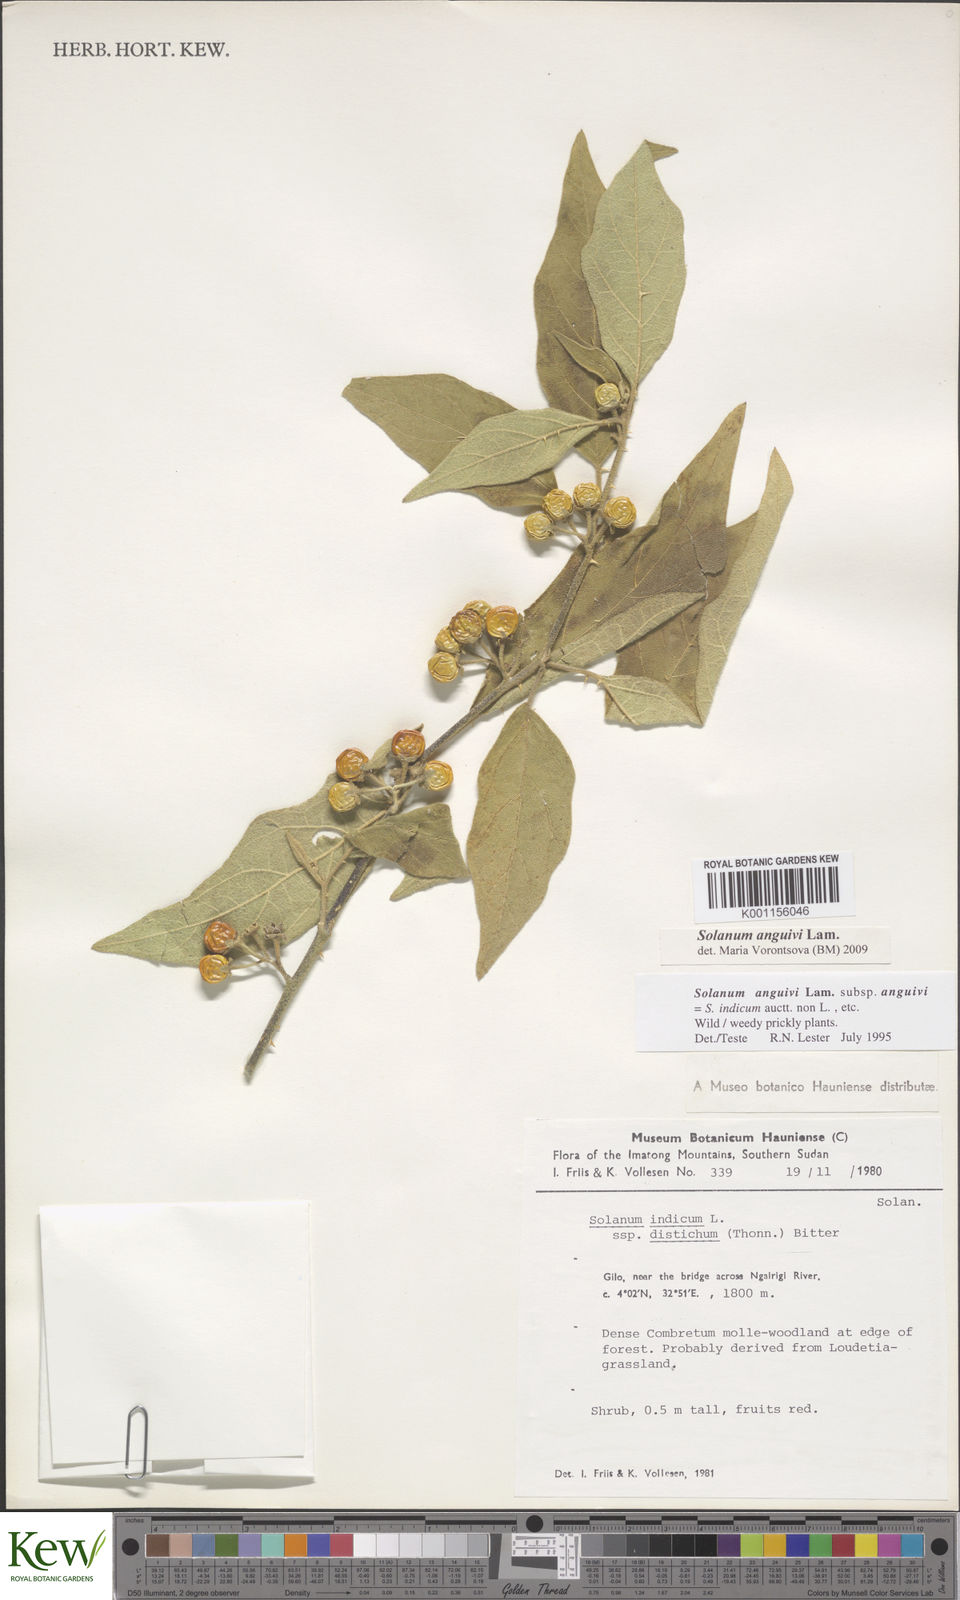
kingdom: Plantae
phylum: Tracheophyta
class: Magnoliopsida
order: Solanales
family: Solanaceae
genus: Solanum
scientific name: Solanum anguivi
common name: Forest bitterberry
